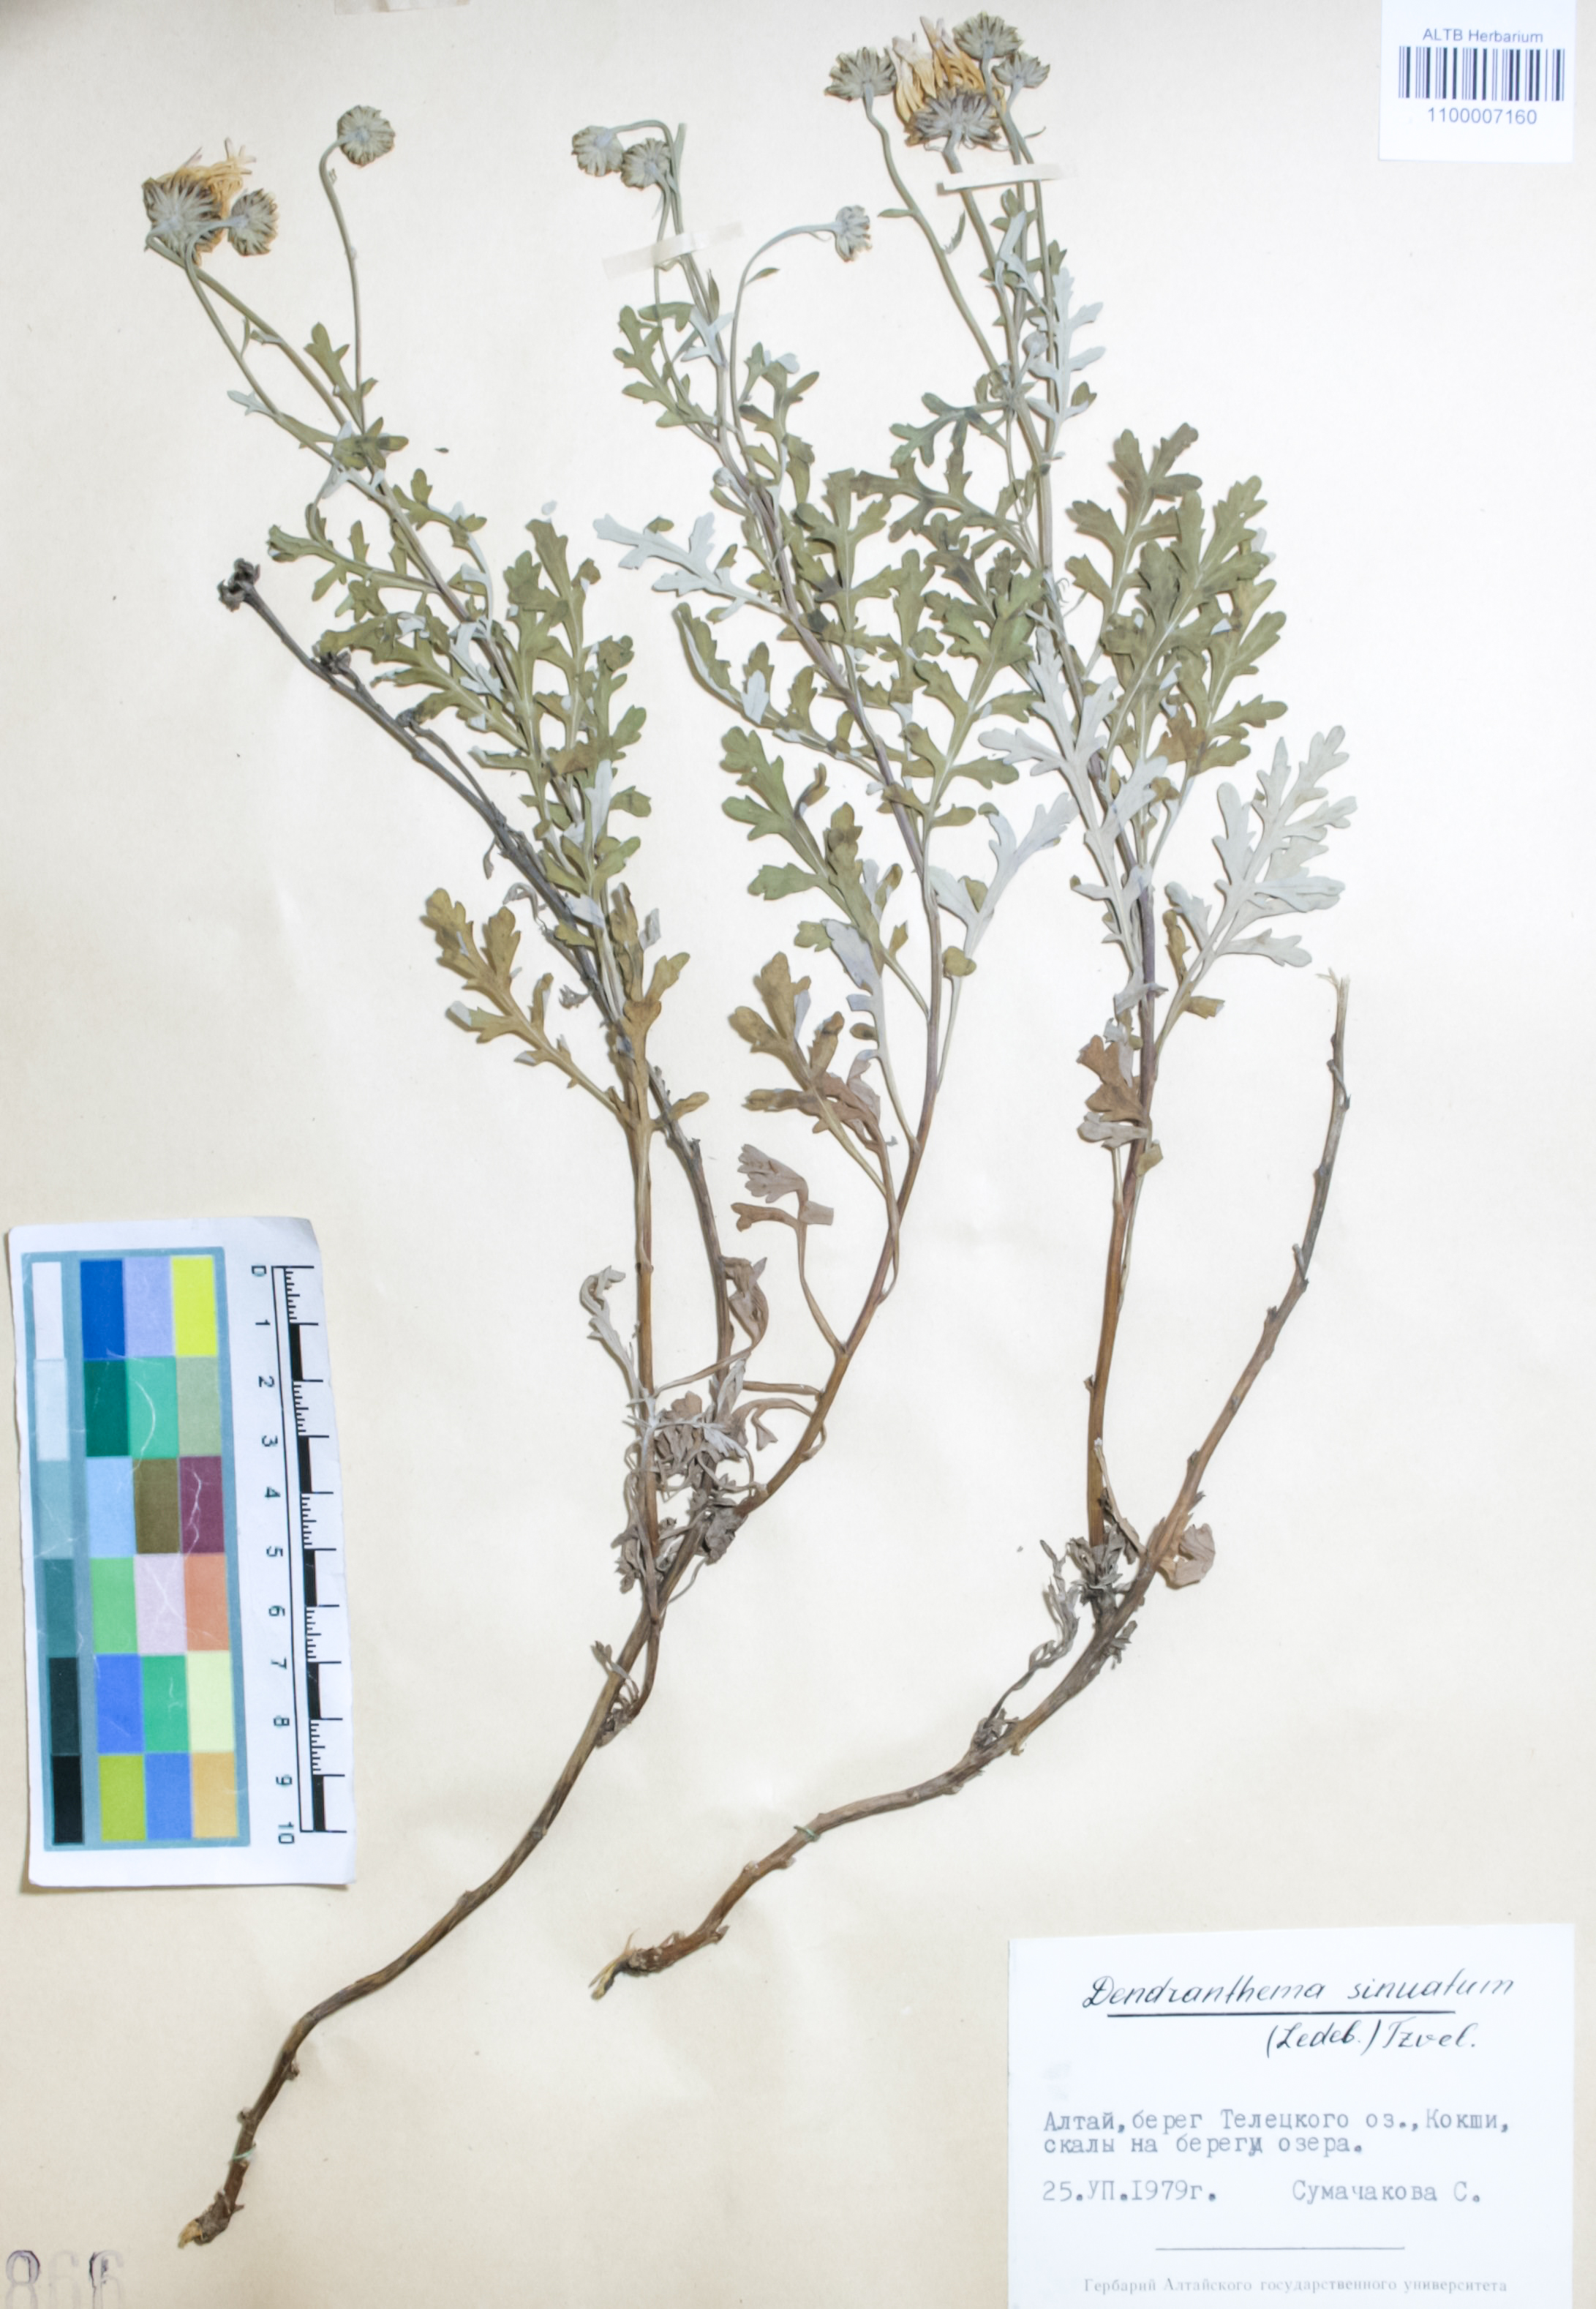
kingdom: Plantae
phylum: Tracheophyta
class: Magnoliopsida
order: Asterales
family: Asteraceae
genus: Chrysanthemum
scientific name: Chrysanthemum sinuatum
